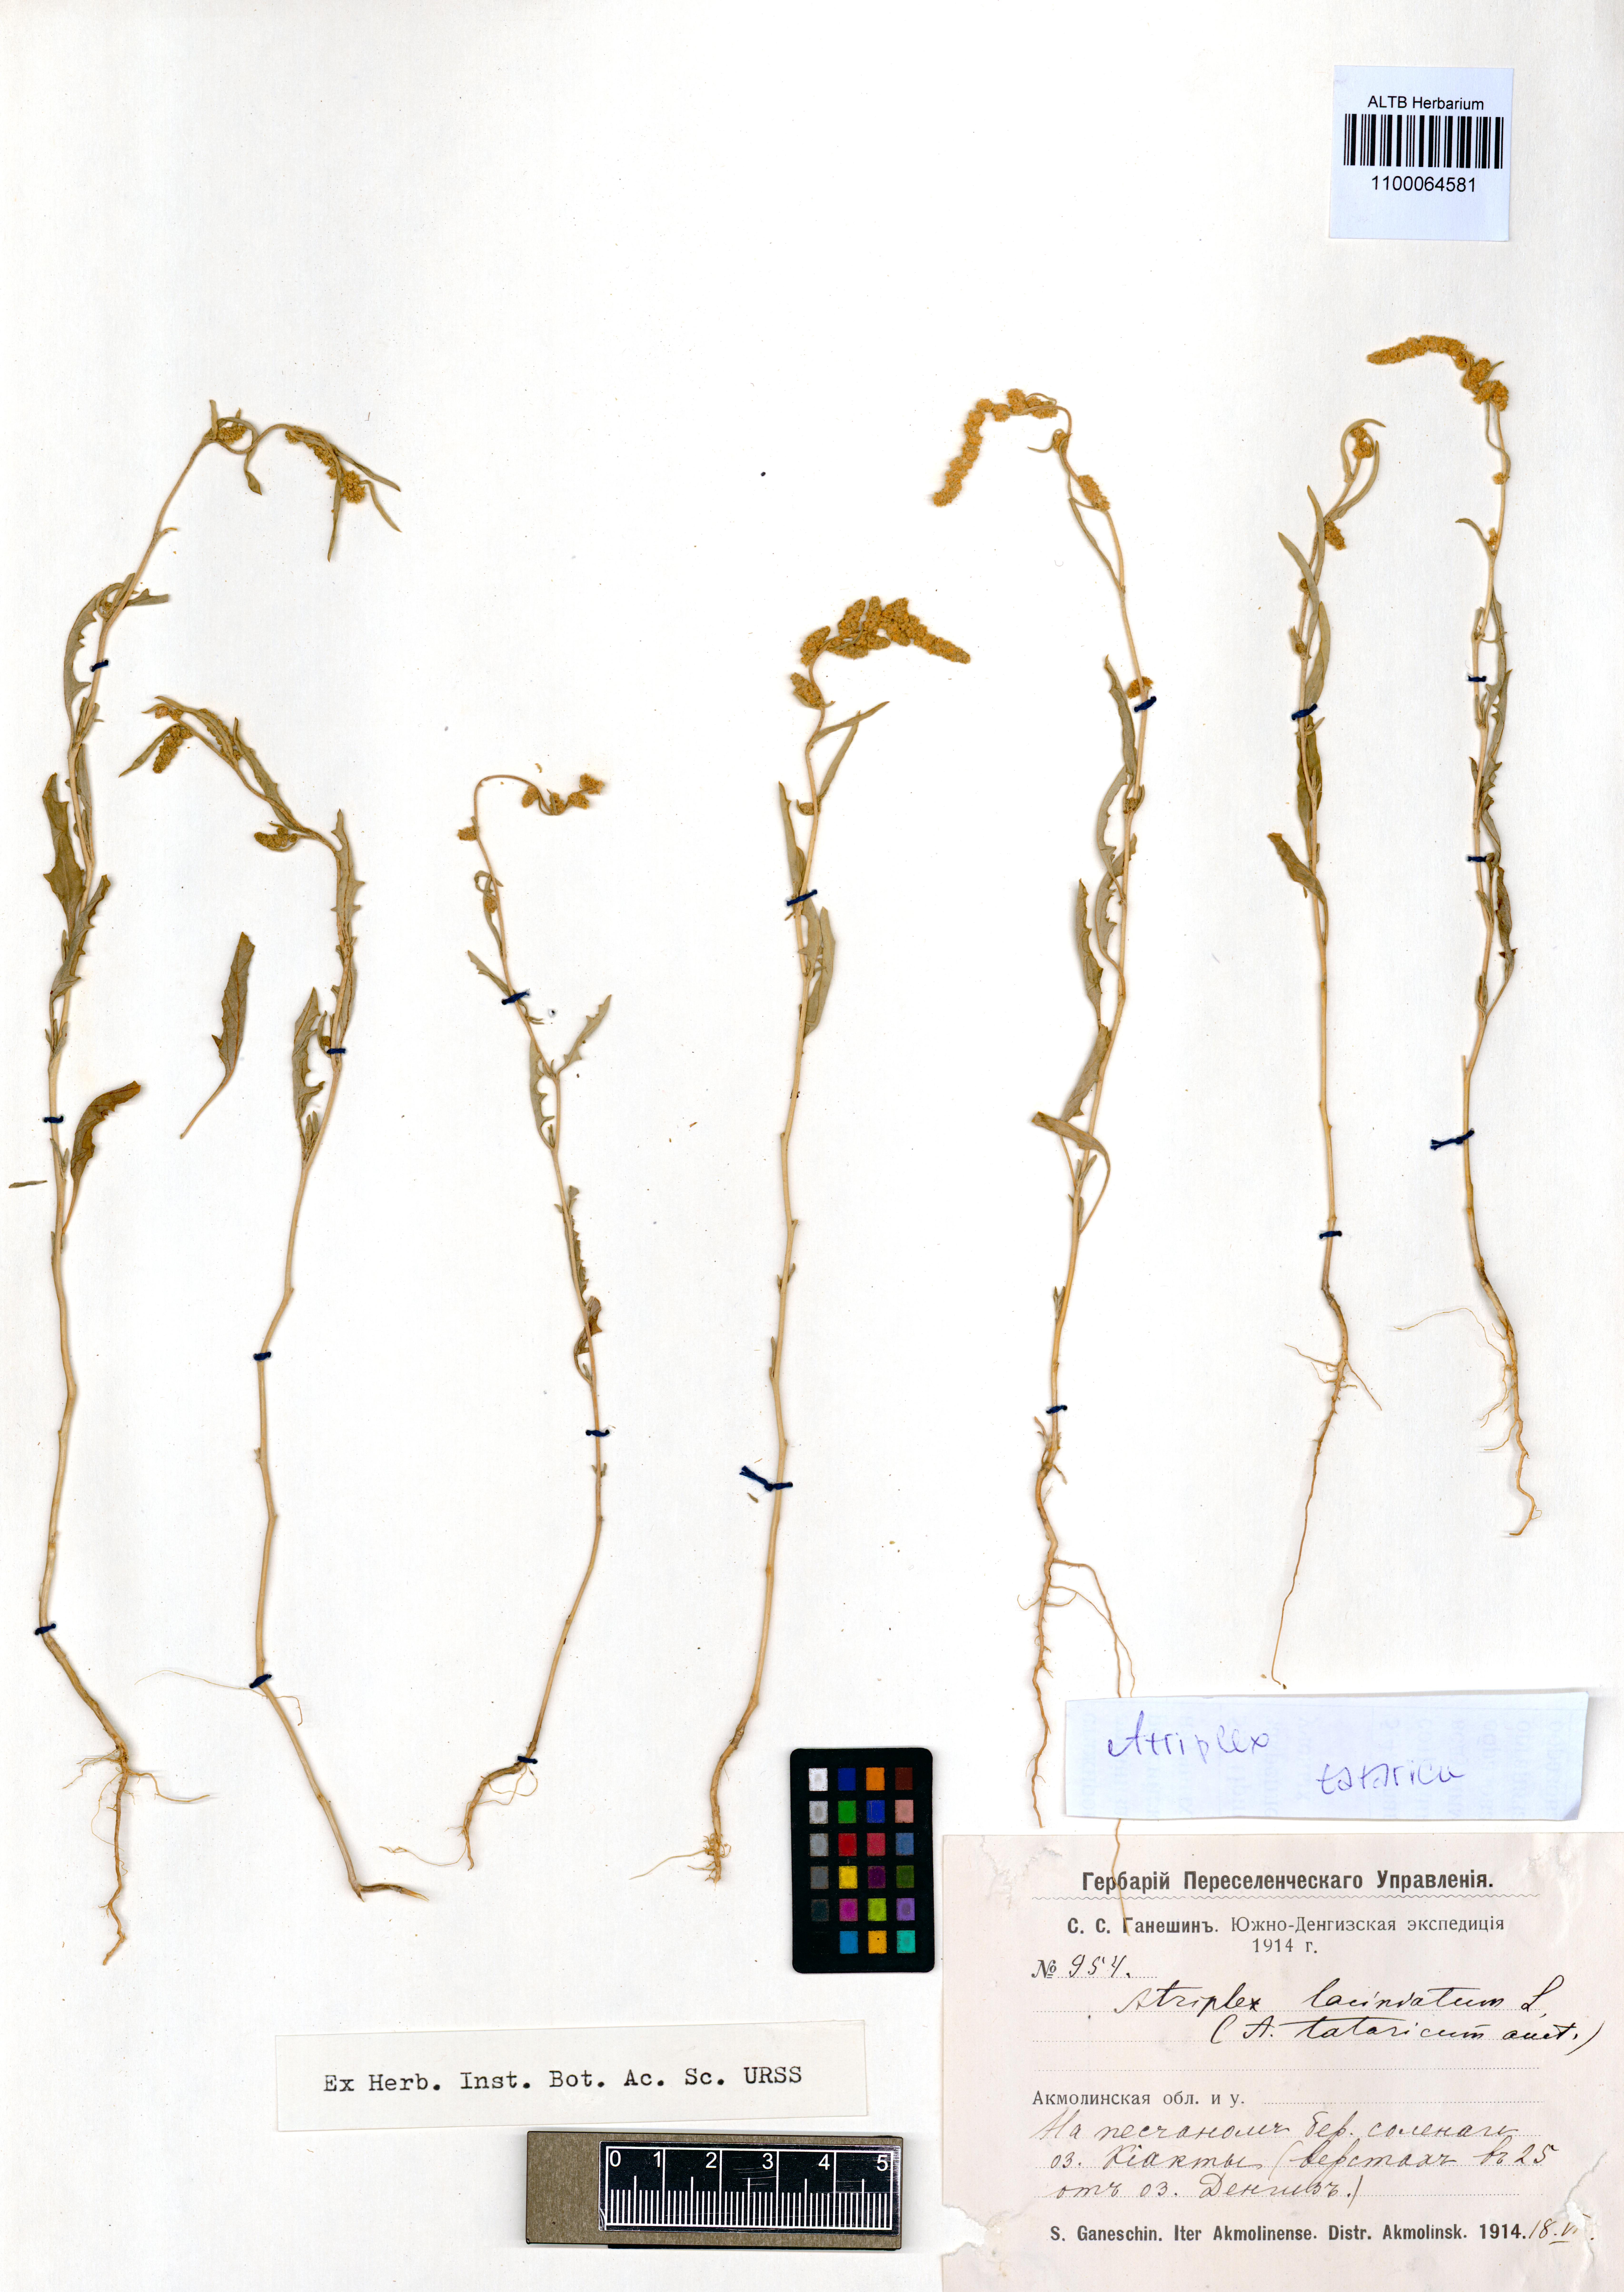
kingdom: Plantae
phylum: Tracheophyta
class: Magnoliopsida
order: Caryophyllales
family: Amaranthaceae
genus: Atriplex
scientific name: Atriplex tatarica
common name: Tatarian orache
